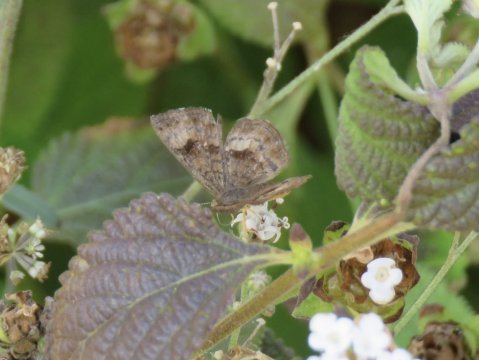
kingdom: Animalia
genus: Calephelis
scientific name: Calephelis nemesis
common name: Fatal Metalmark
